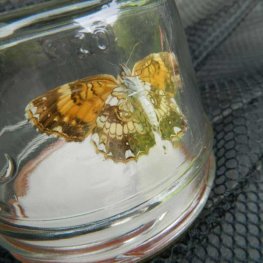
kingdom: Animalia
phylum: Arthropoda
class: Insecta
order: Lepidoptera
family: Nymphalidae
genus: Chlosyne
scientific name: Chlosyne nycteis
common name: Silvery Checkerspot
